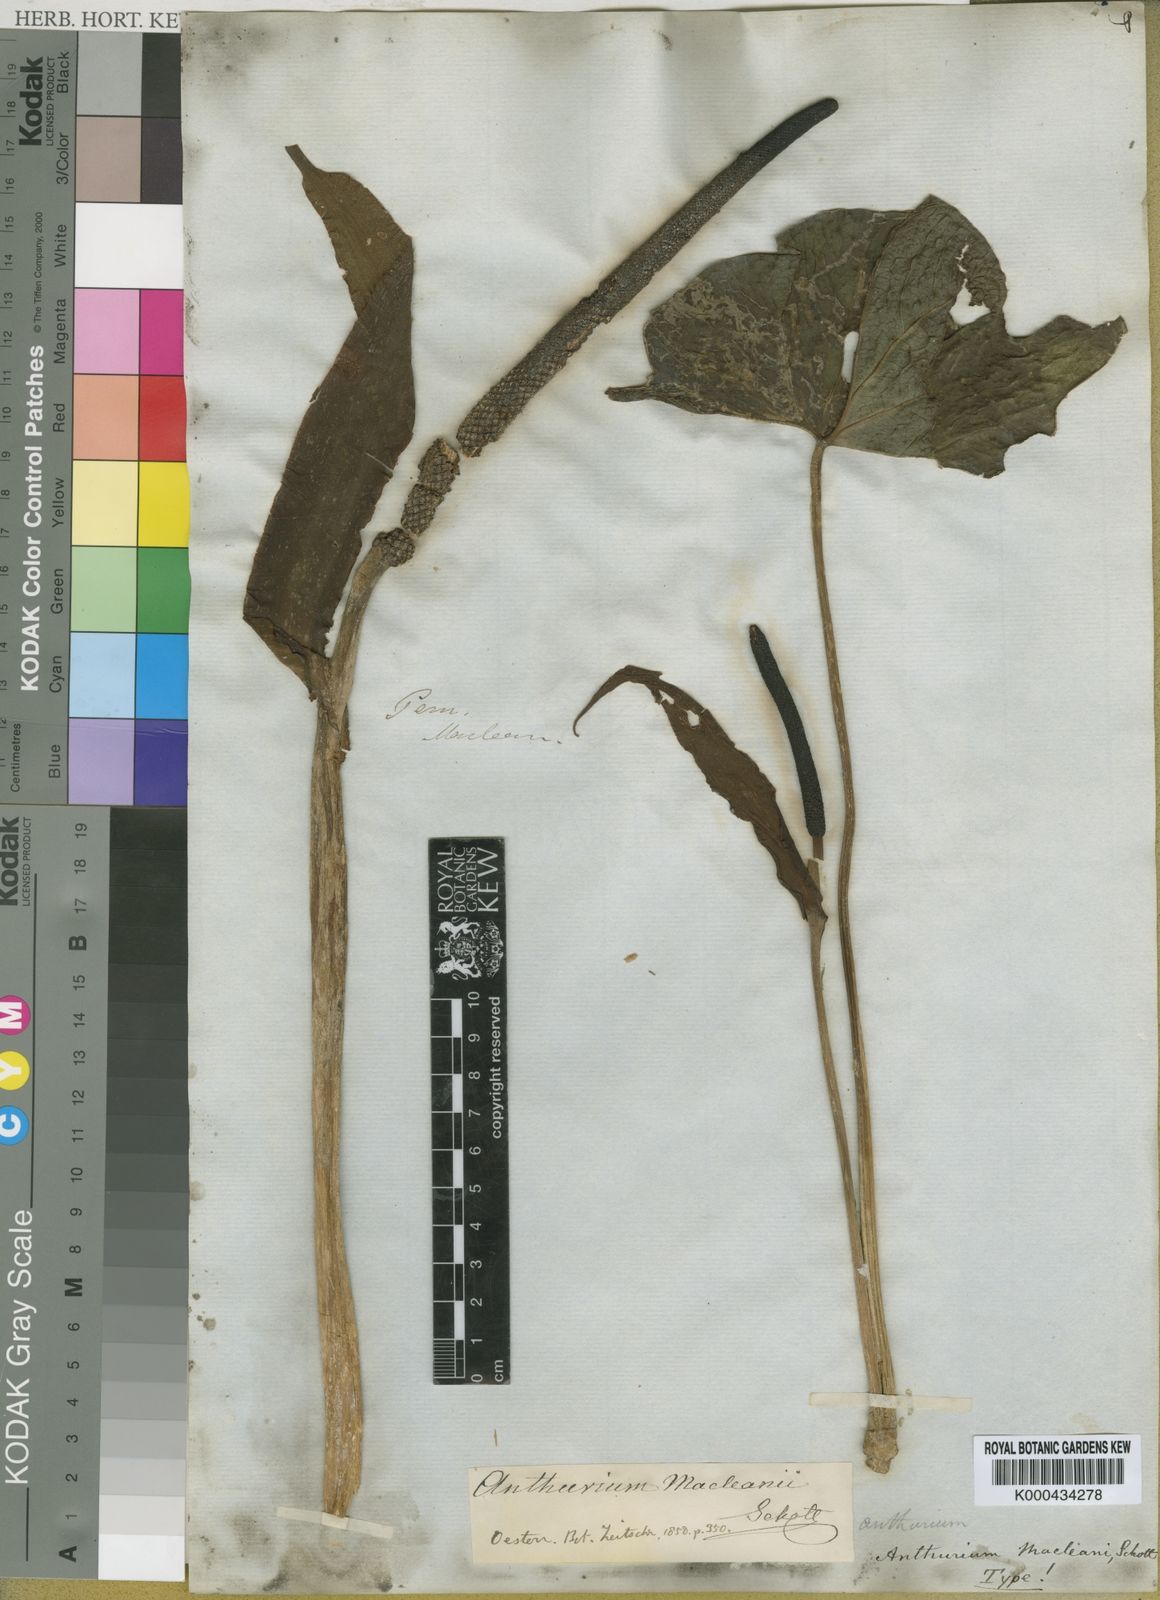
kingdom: Plantae
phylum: Tracheophyta
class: Liliopsida
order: Alismatales
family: Araceae
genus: Anthurium
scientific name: Anthurium macleanii
